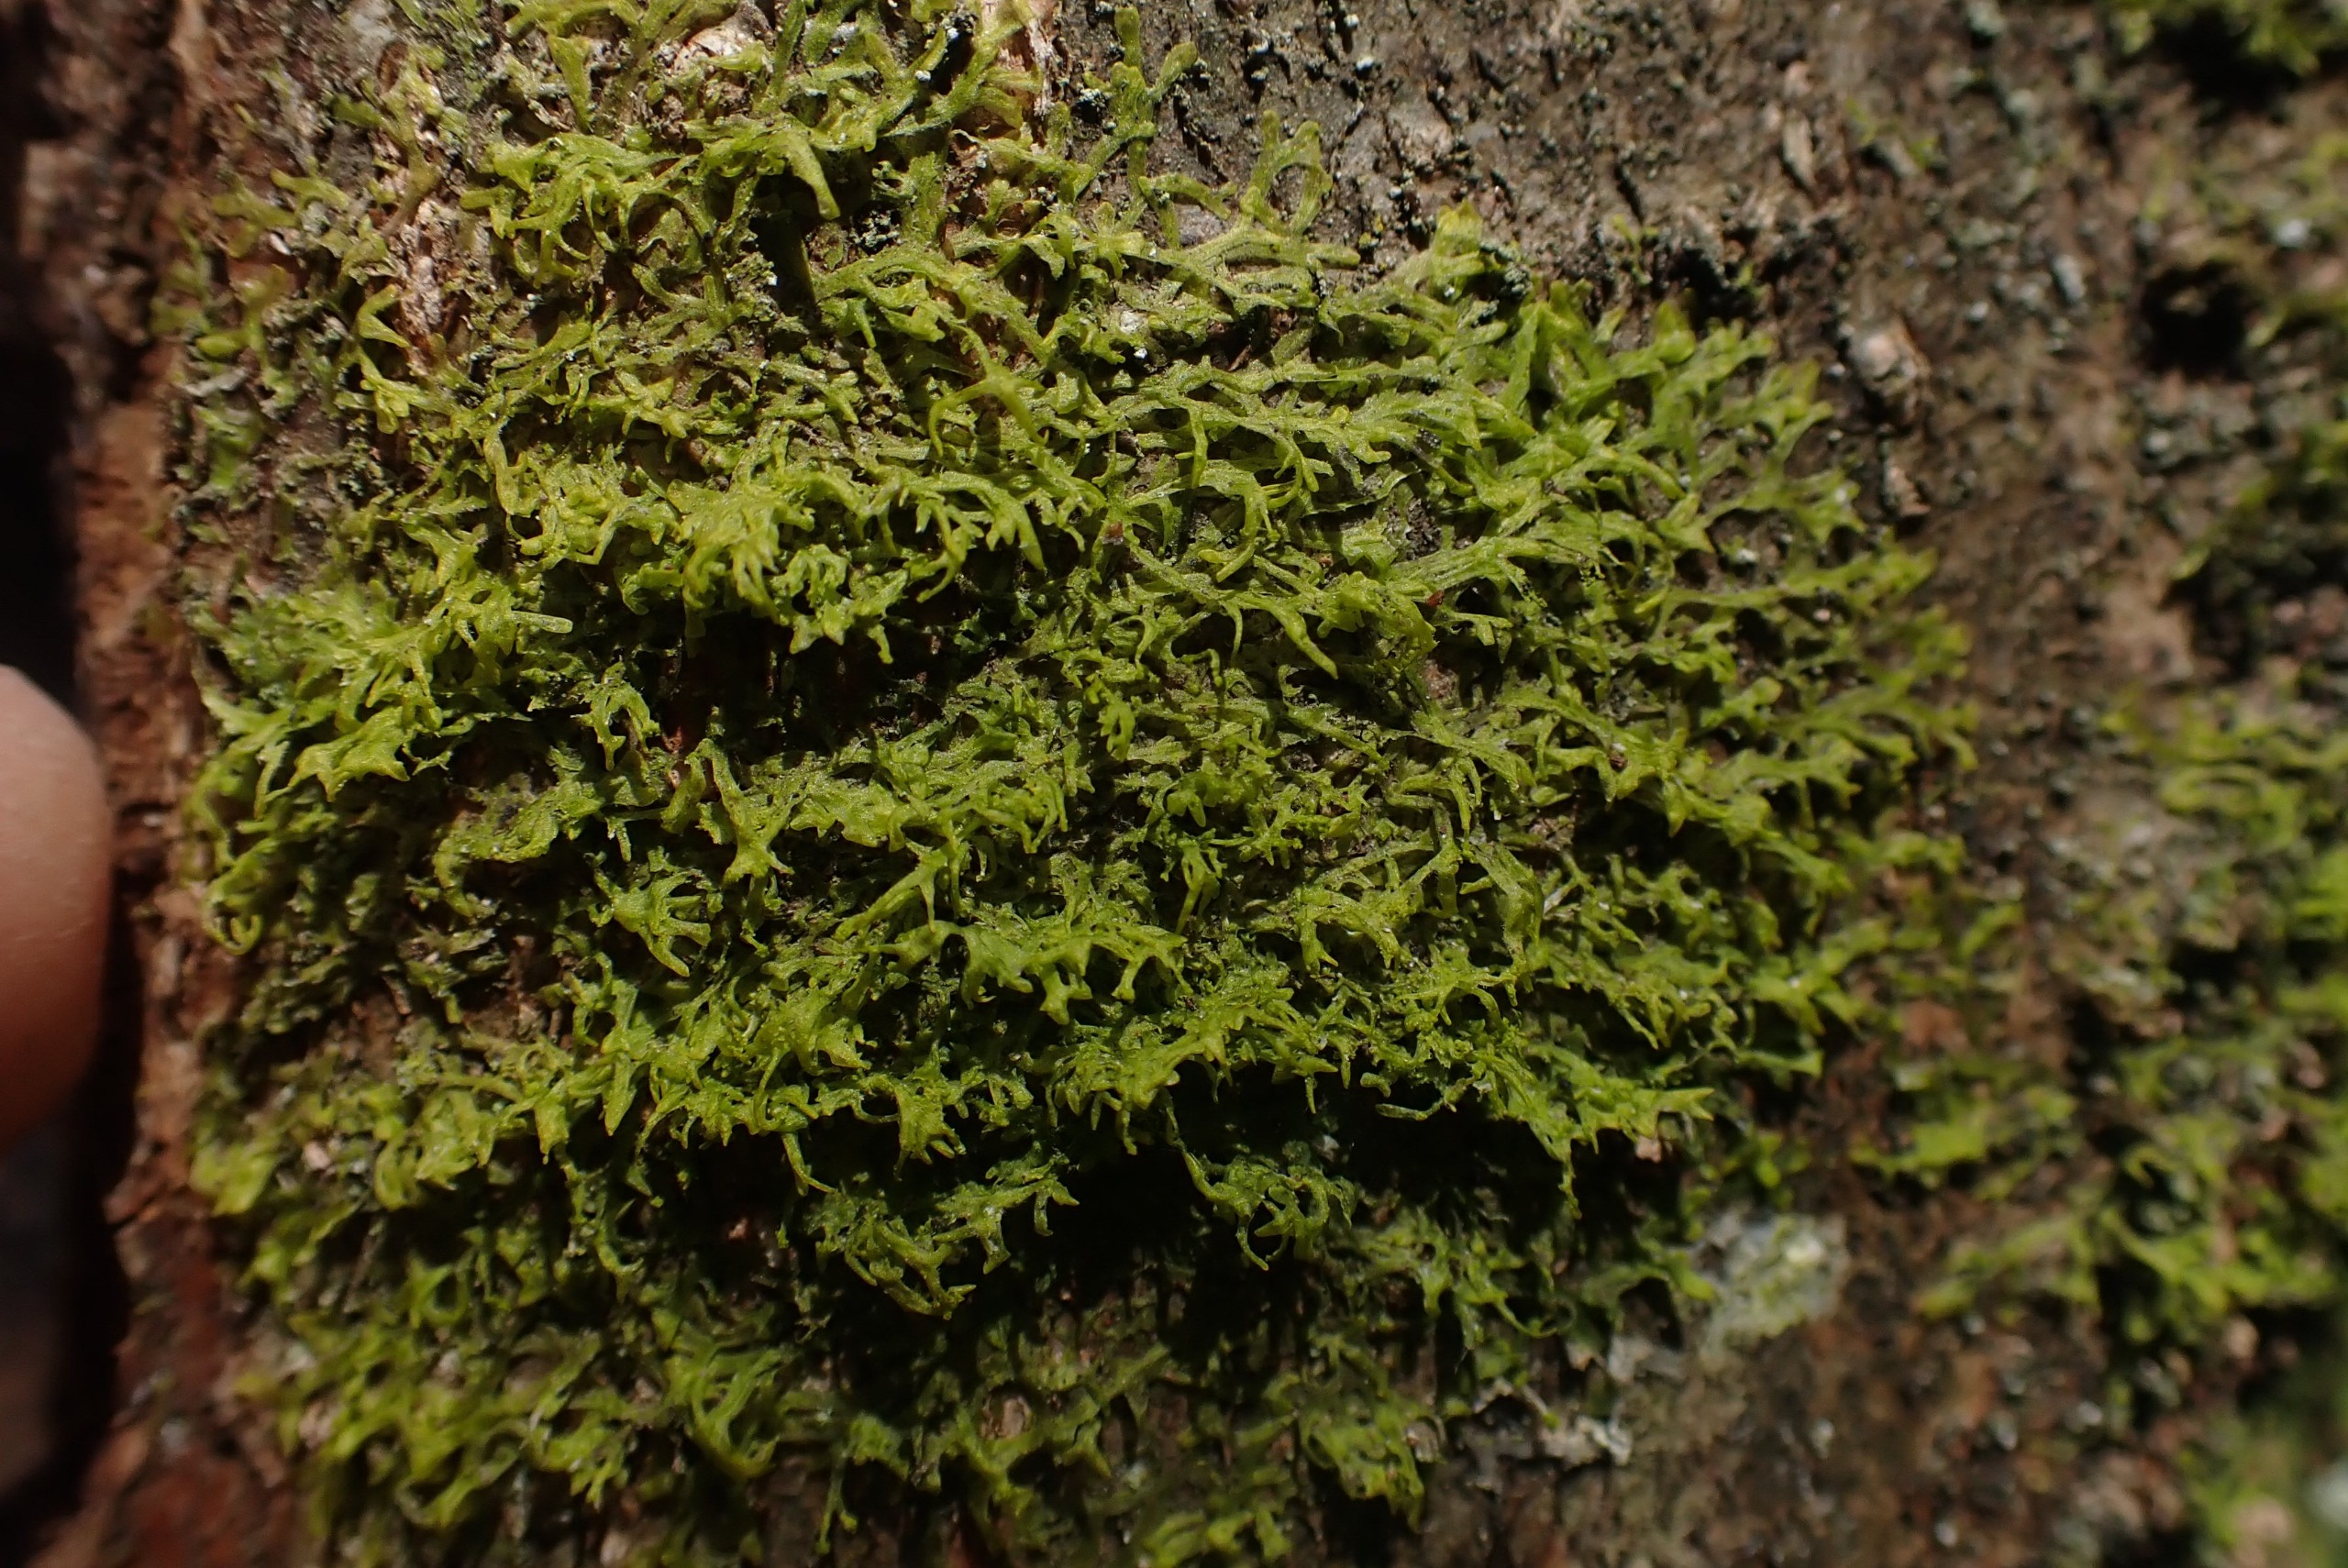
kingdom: Plantae
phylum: Marchantiophyta
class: Jungermanniopsida
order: Metzgeriales
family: Aneuraceae
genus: Riccardia
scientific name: Riccardia palmata
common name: Blågrøn gaffelløv
